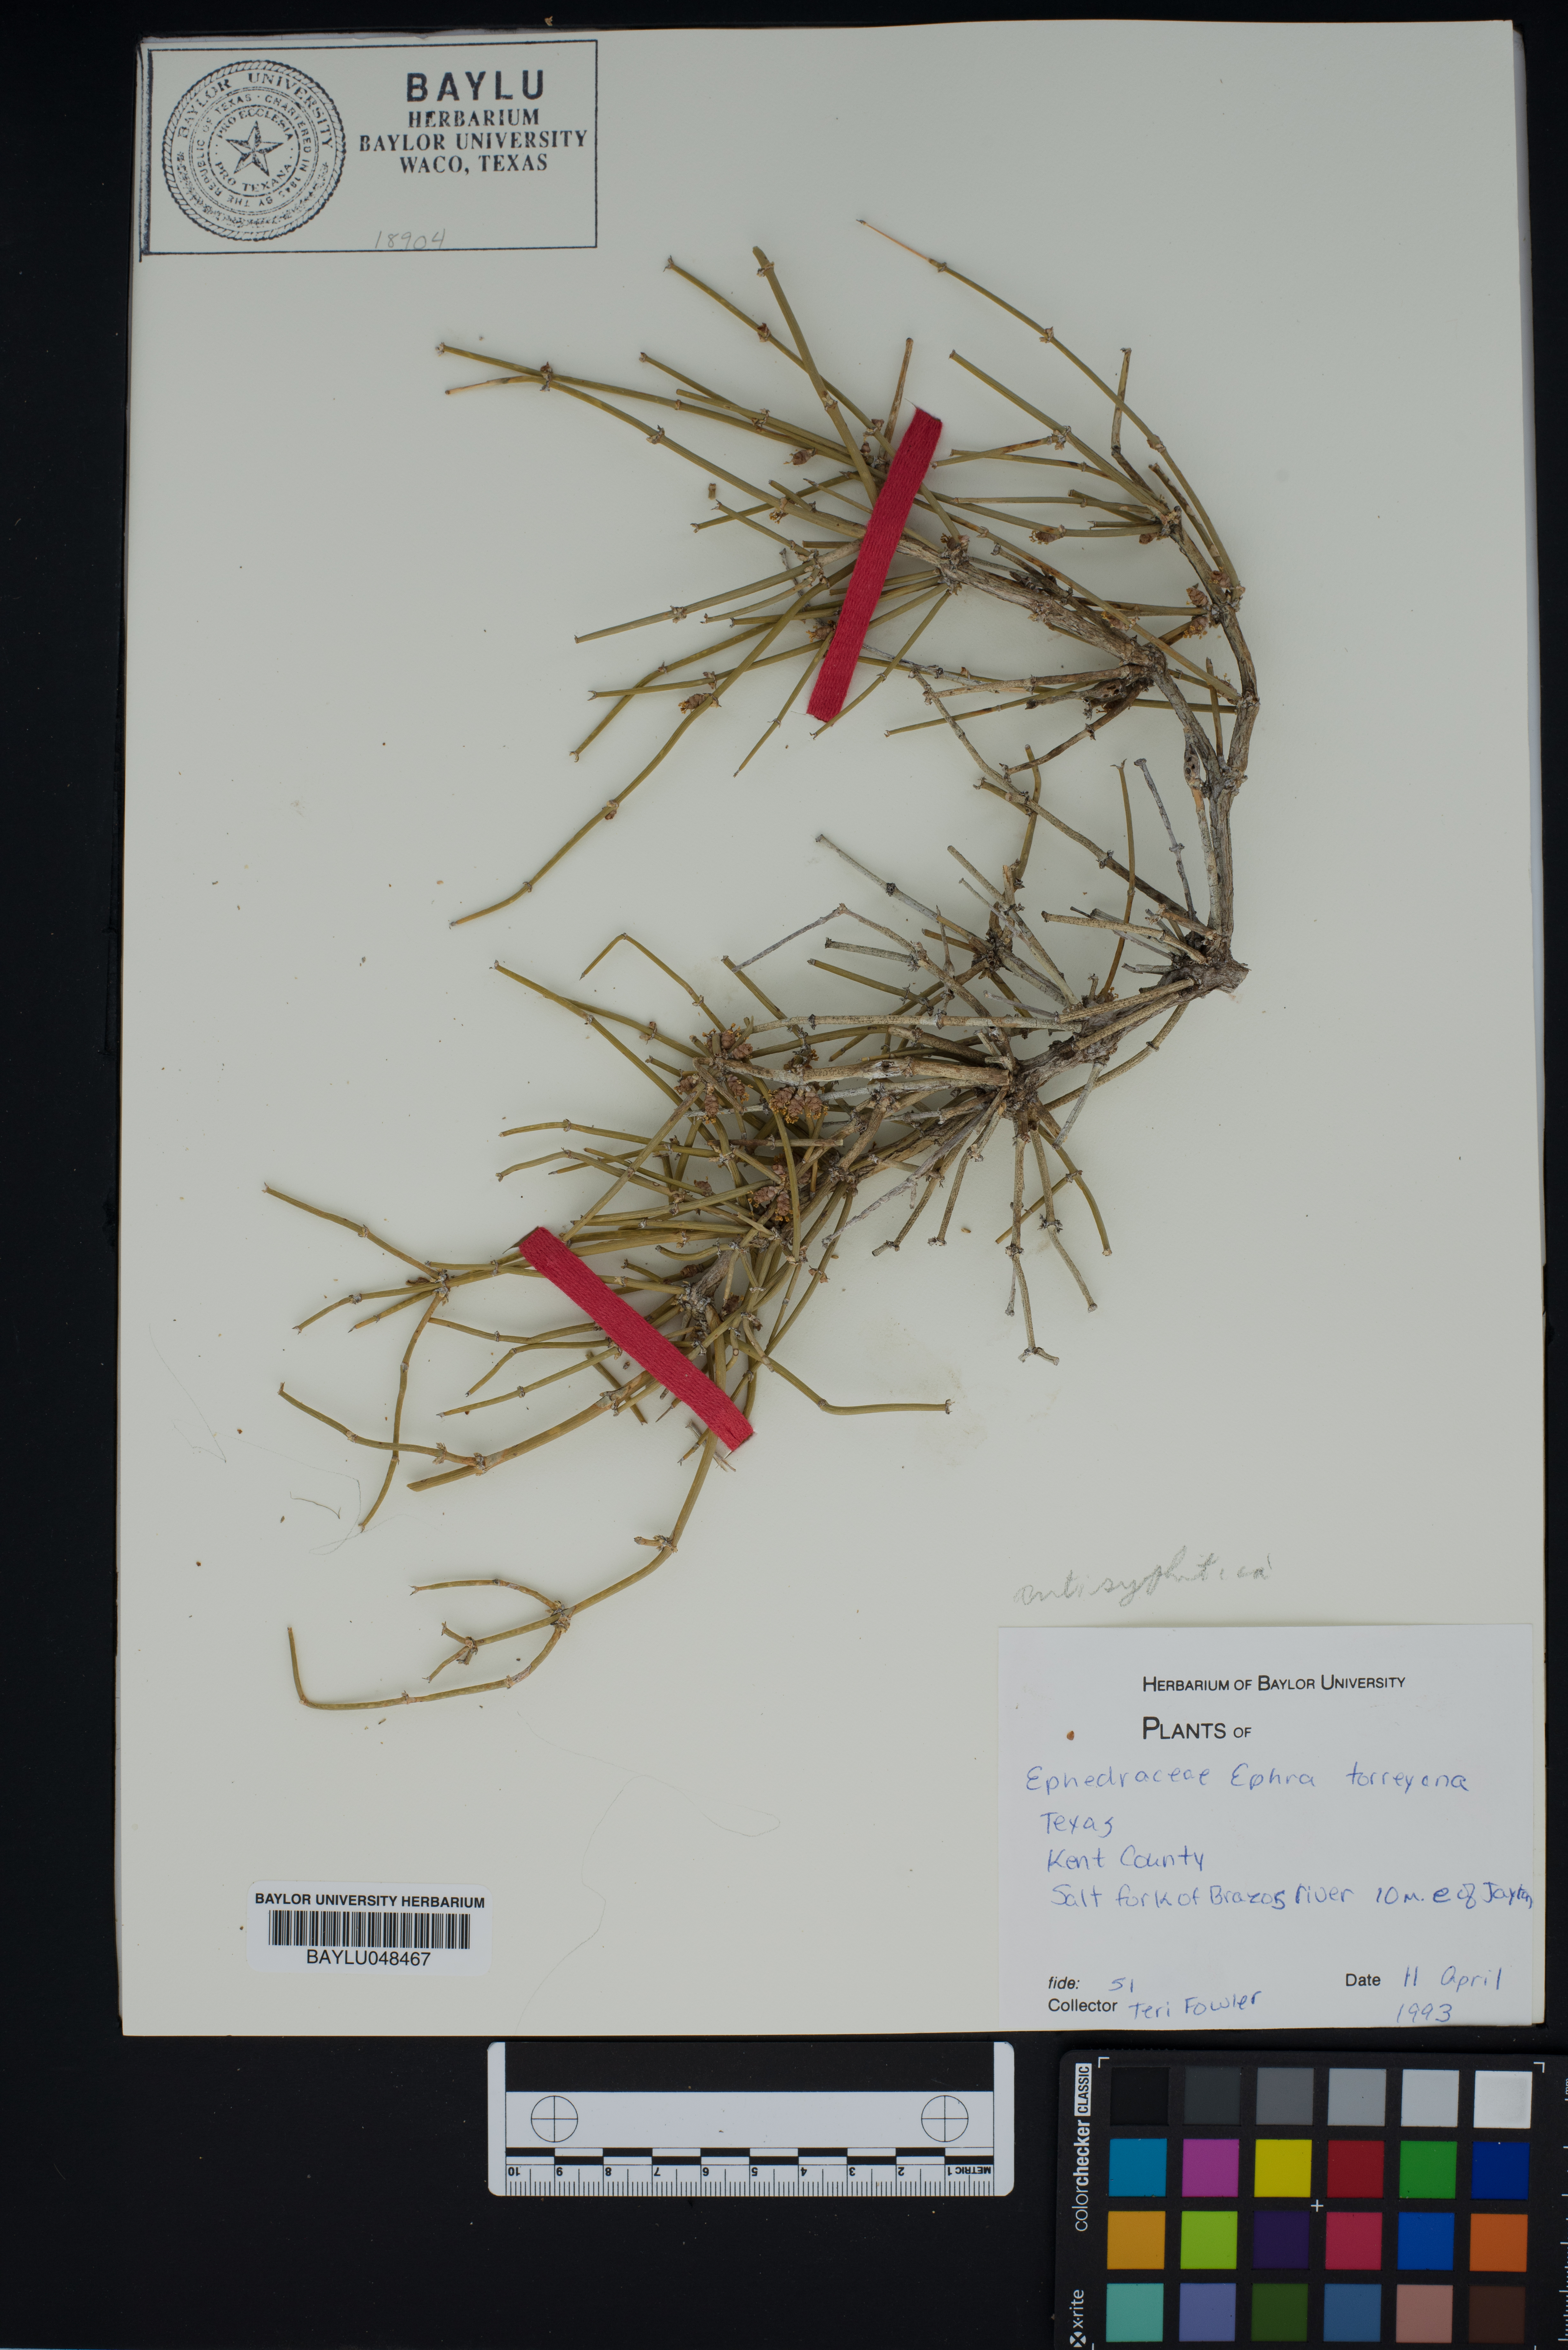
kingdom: Plantae
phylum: Tracheophyta
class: Gnetopsida
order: Ephedrales
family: Ephedraceae
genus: Ephedra
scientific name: Ephedra antisyphilitica
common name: Clipweed
